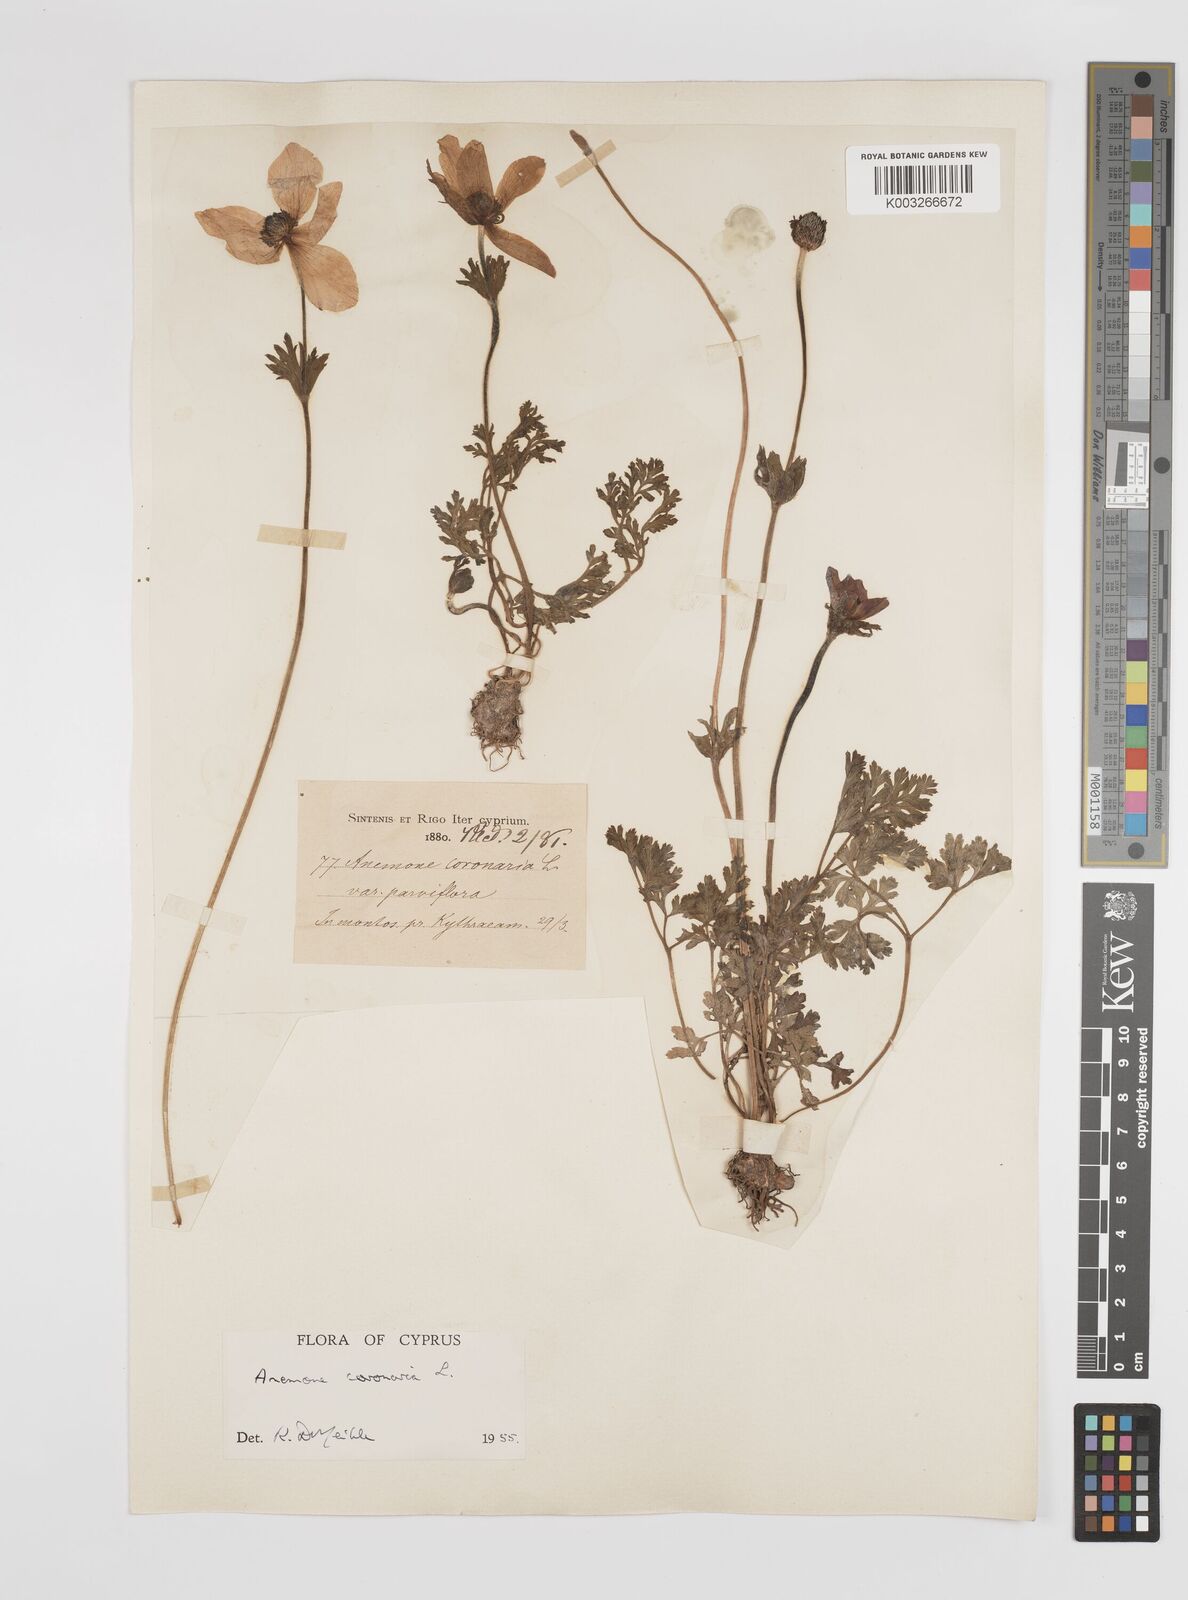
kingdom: Plantae
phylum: Tracheophyta
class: Magnoliopsida
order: Ranunculales
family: Ranunculaceae
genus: Anemone
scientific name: Anemone coronaria
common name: Poppy anemone
